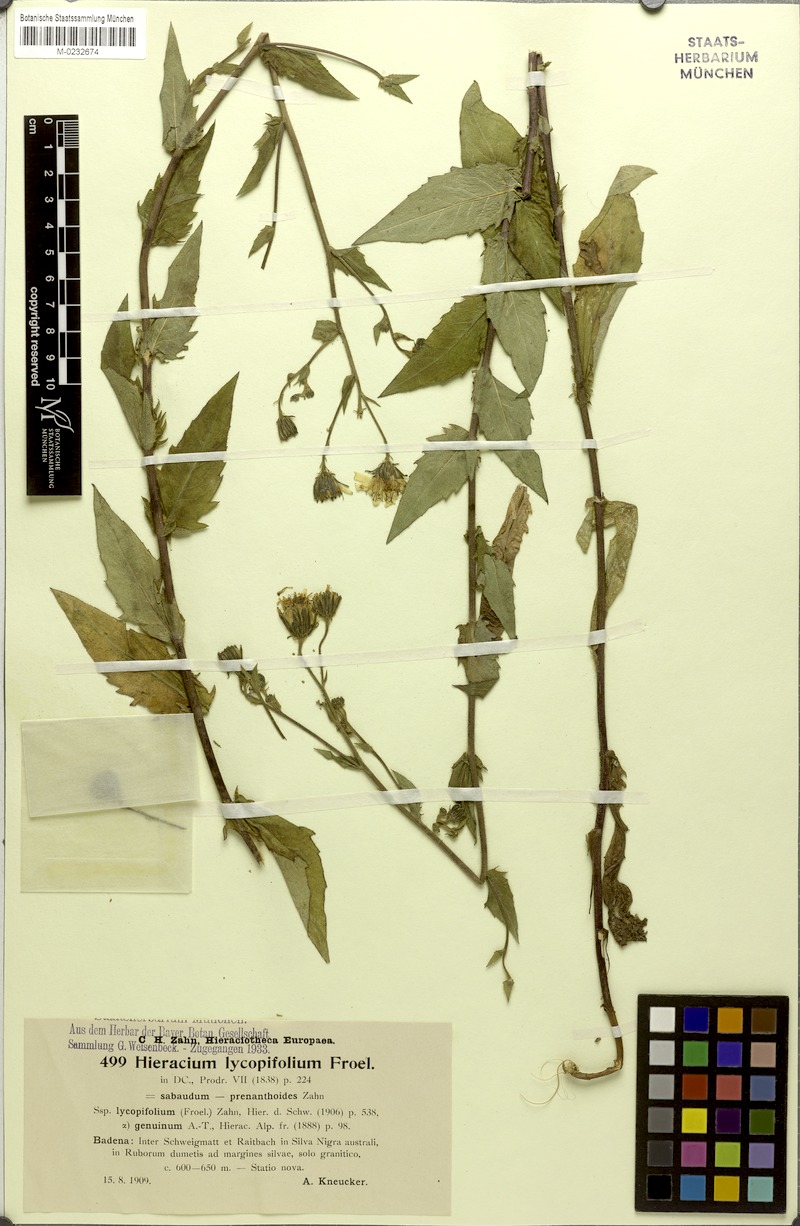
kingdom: Plantae
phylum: Tracheophyta
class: Magnoliopsida
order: Asterales
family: Asteraceae
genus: Hieracium
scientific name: Hieracium lycopifolium
